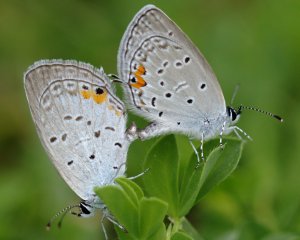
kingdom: Animalia
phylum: Arthropoda
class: Insecta
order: Lepidoptera
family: Lycaenidae
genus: Elkalyce
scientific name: Elkalyce comyntas
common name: Eastern Tailed-Blue
